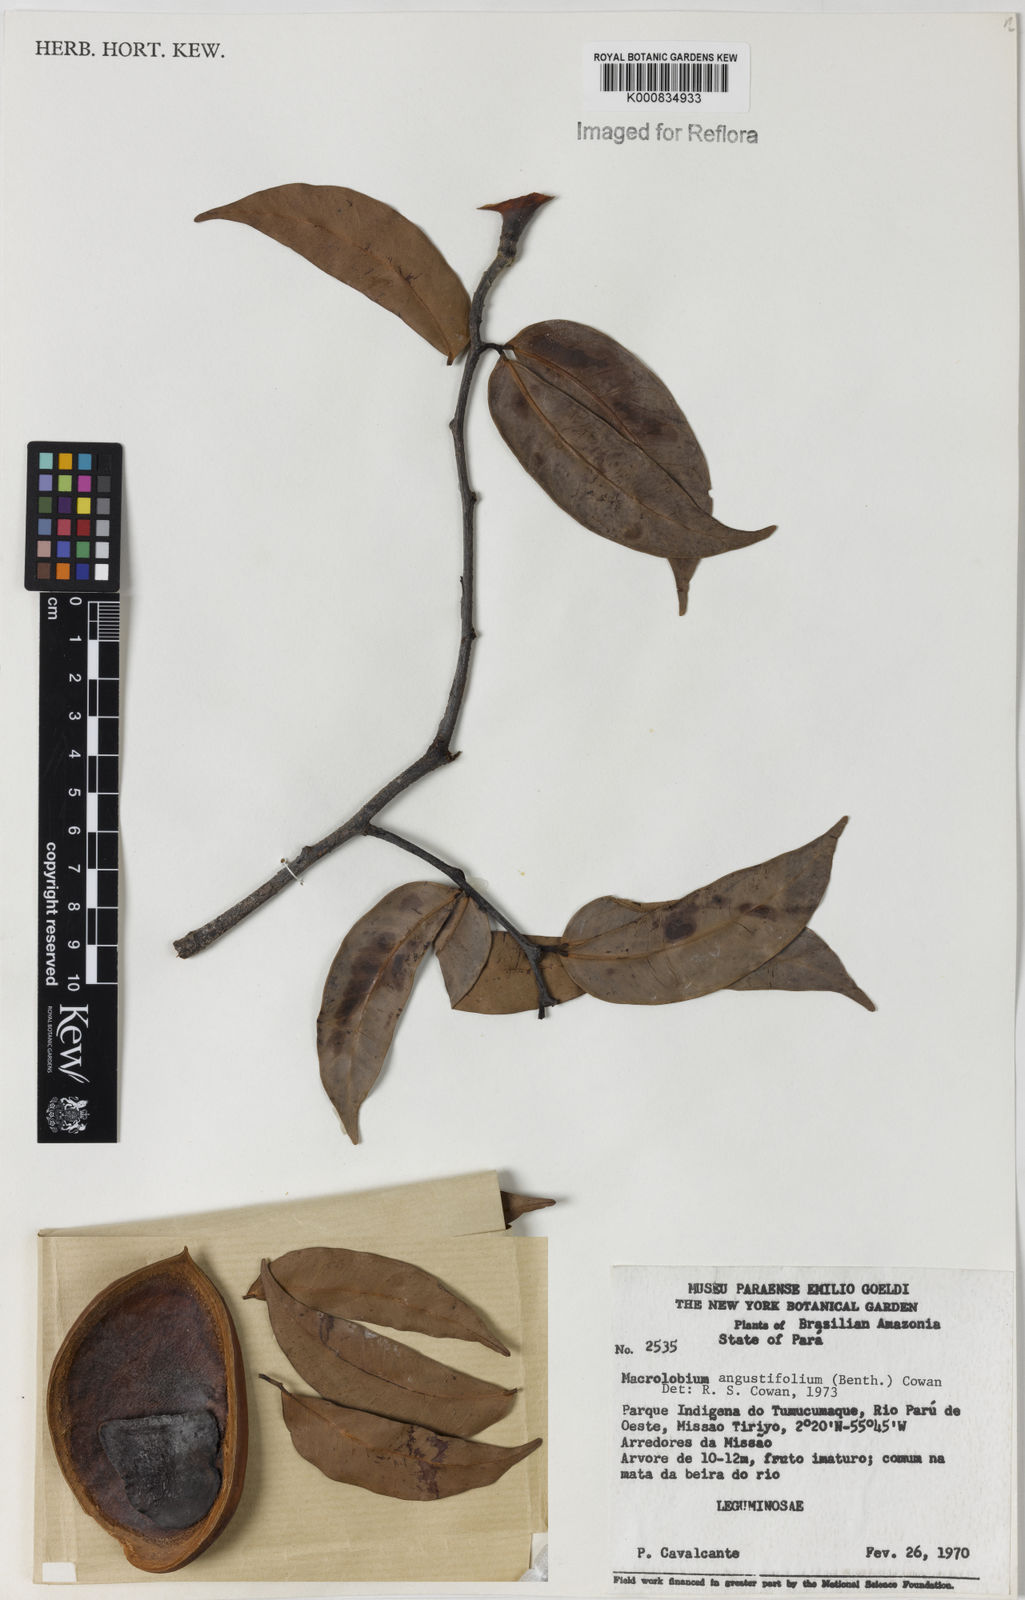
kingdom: Plantae
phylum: Tracheophyta
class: Magnoliopsida
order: Fabales
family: Fabaceae
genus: Macrolobium
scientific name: Macrolobium angustifolium
